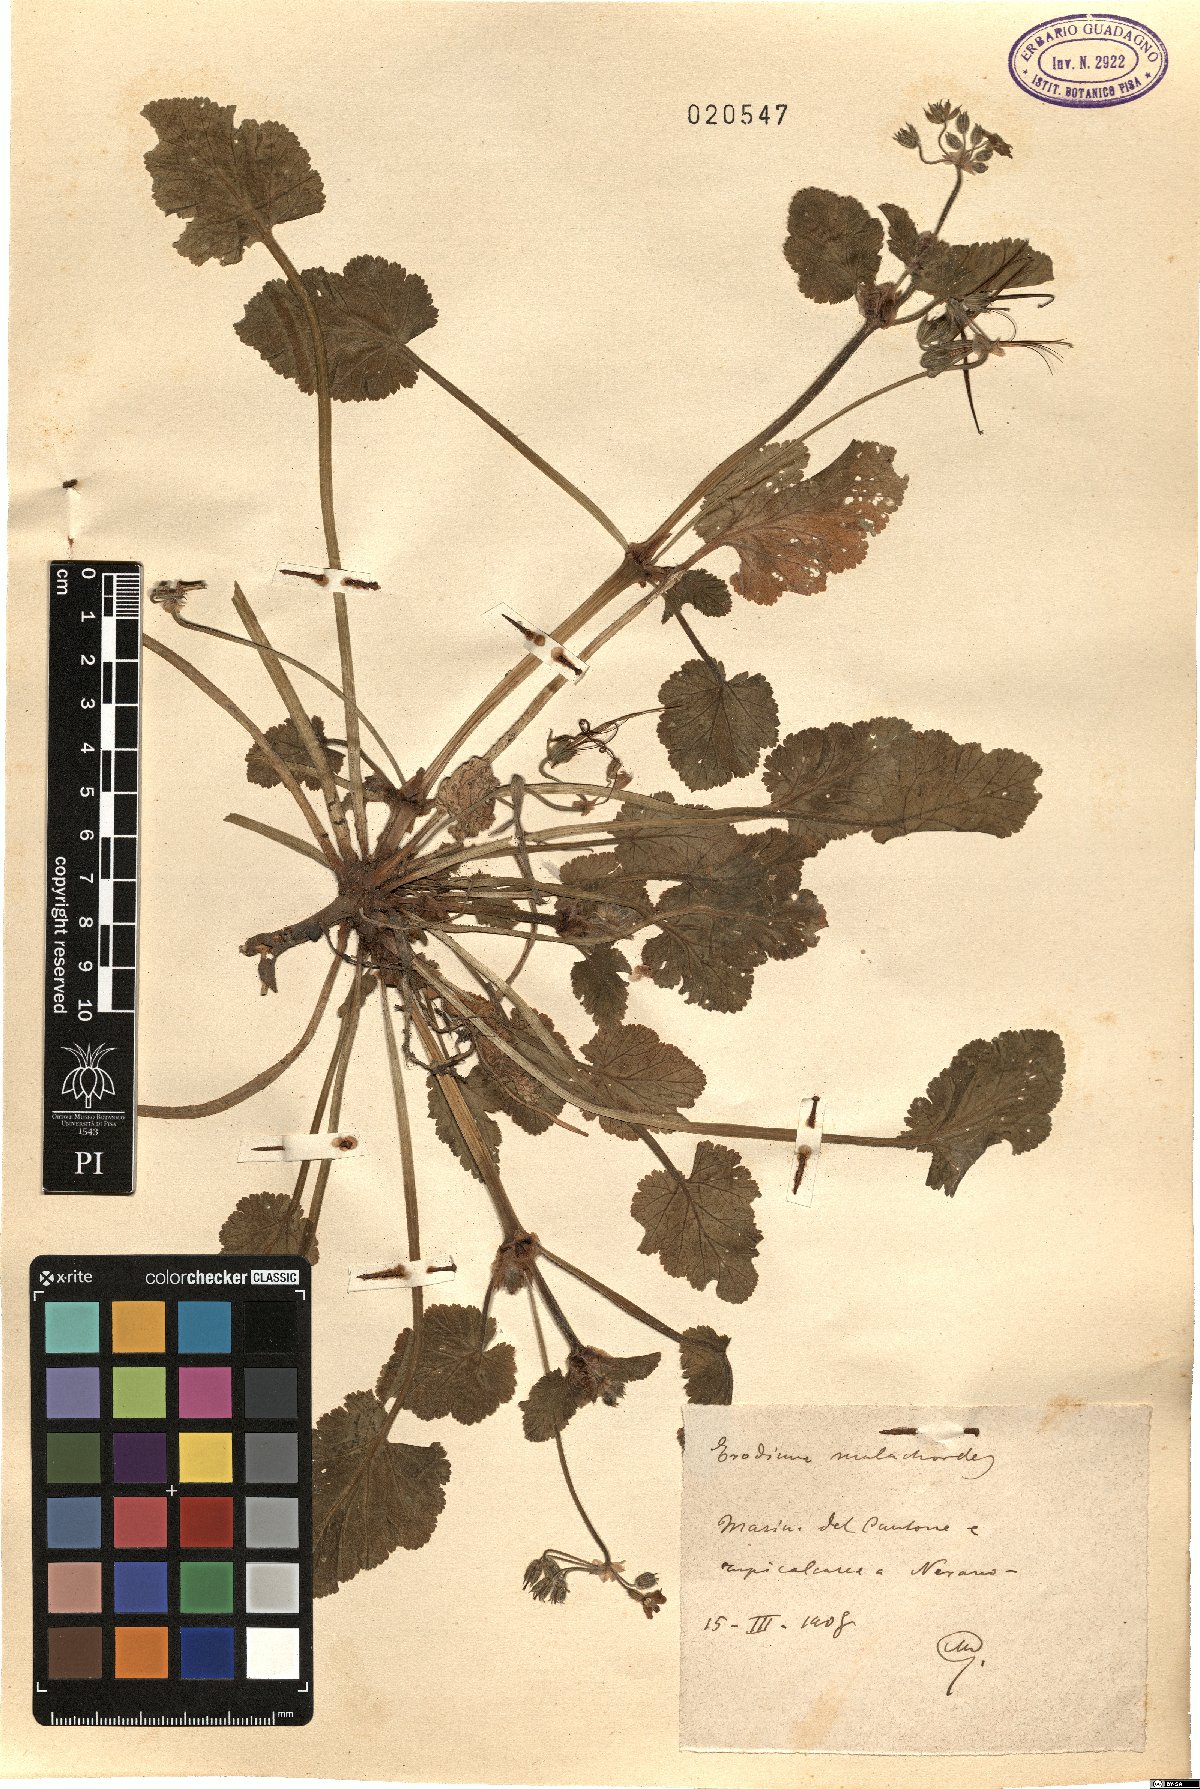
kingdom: Plantae
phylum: Tracheophyta
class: Magnoliopsida
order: Geraniales
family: Geraniaceae
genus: Erodium
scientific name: Erodium malacoides
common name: Soft stork's-bill
